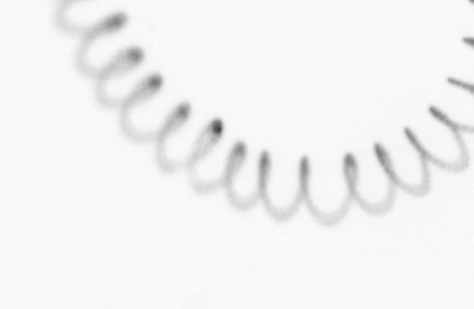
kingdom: Chromista
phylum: Ochrophyta
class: Bacillariophyceae
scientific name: Bacillariophyceae
